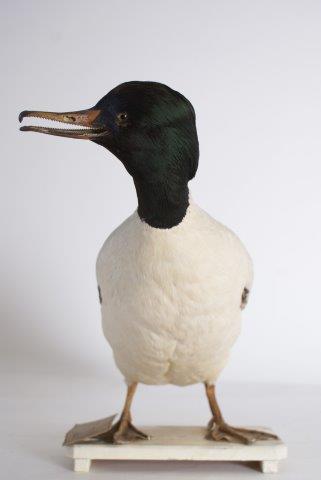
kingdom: Animalia
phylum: Chordata
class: Aves
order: Anseriformes
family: Anatidae
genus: Mergus
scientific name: Mergus merganser
